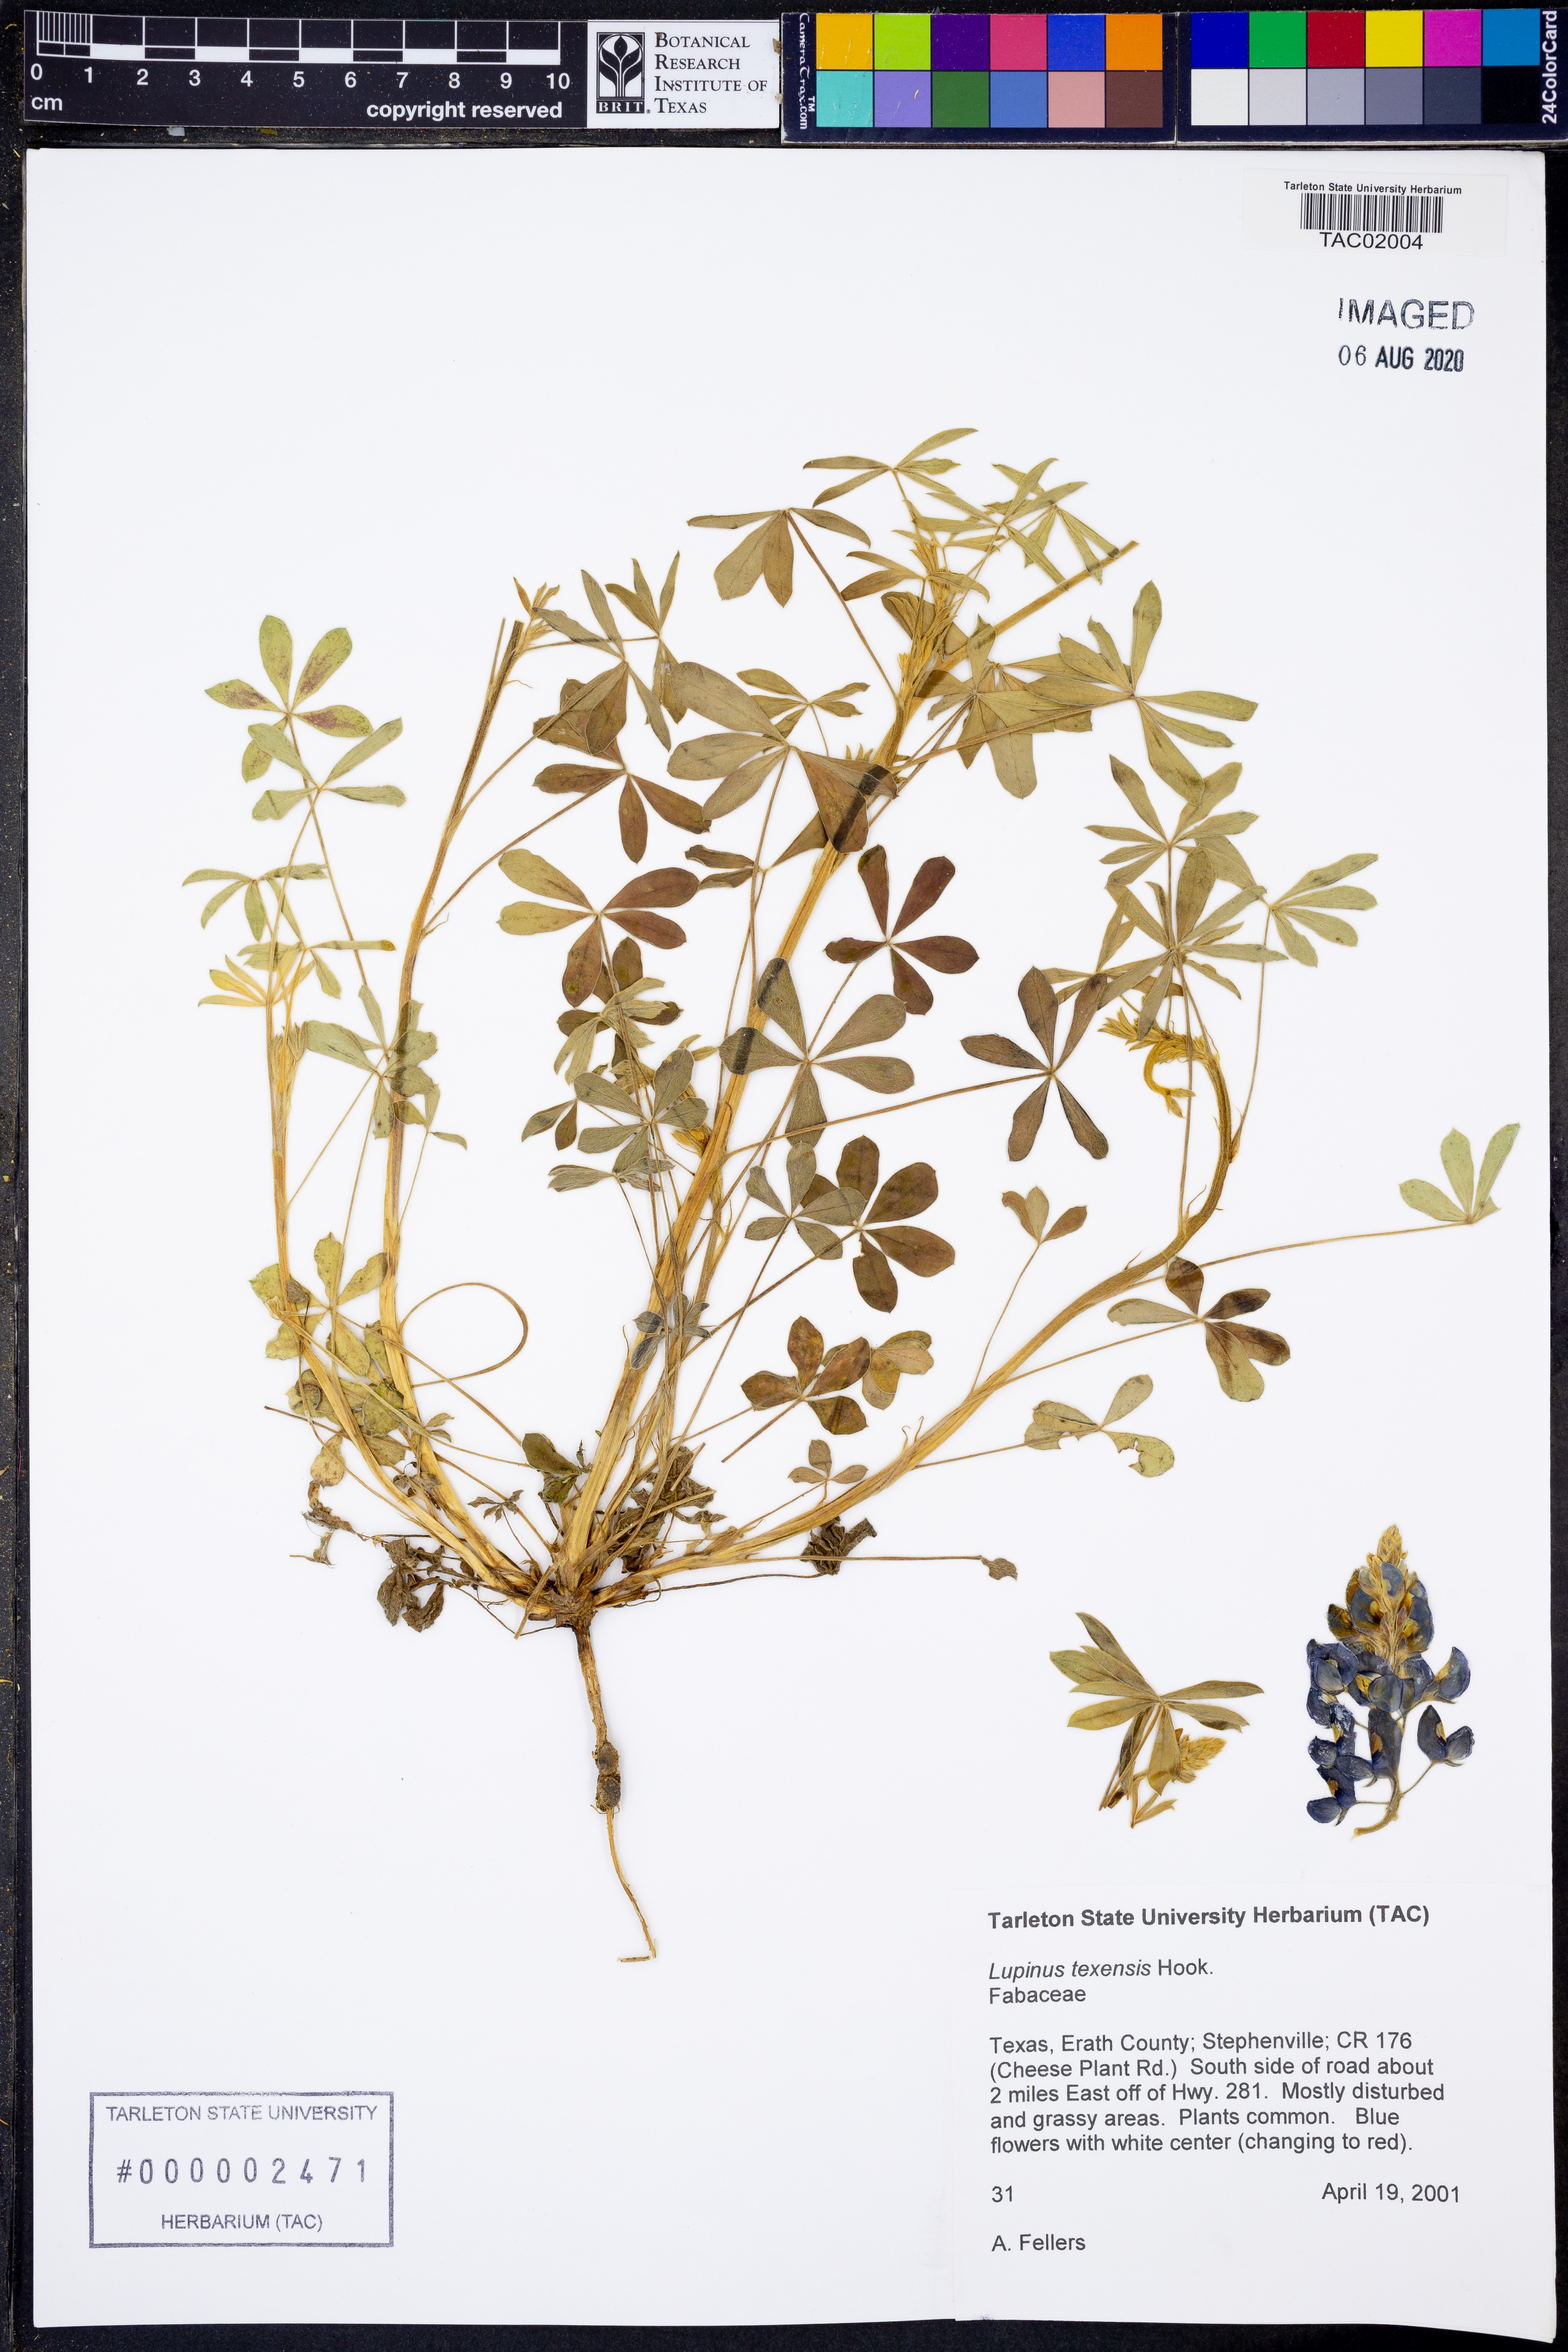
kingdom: Plantae
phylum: Tracheophyta
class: Magnoliopsida
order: Fabales
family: Fabaceae
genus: Lupinus
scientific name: Lupinus texensis
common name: Texas bluebonnet
